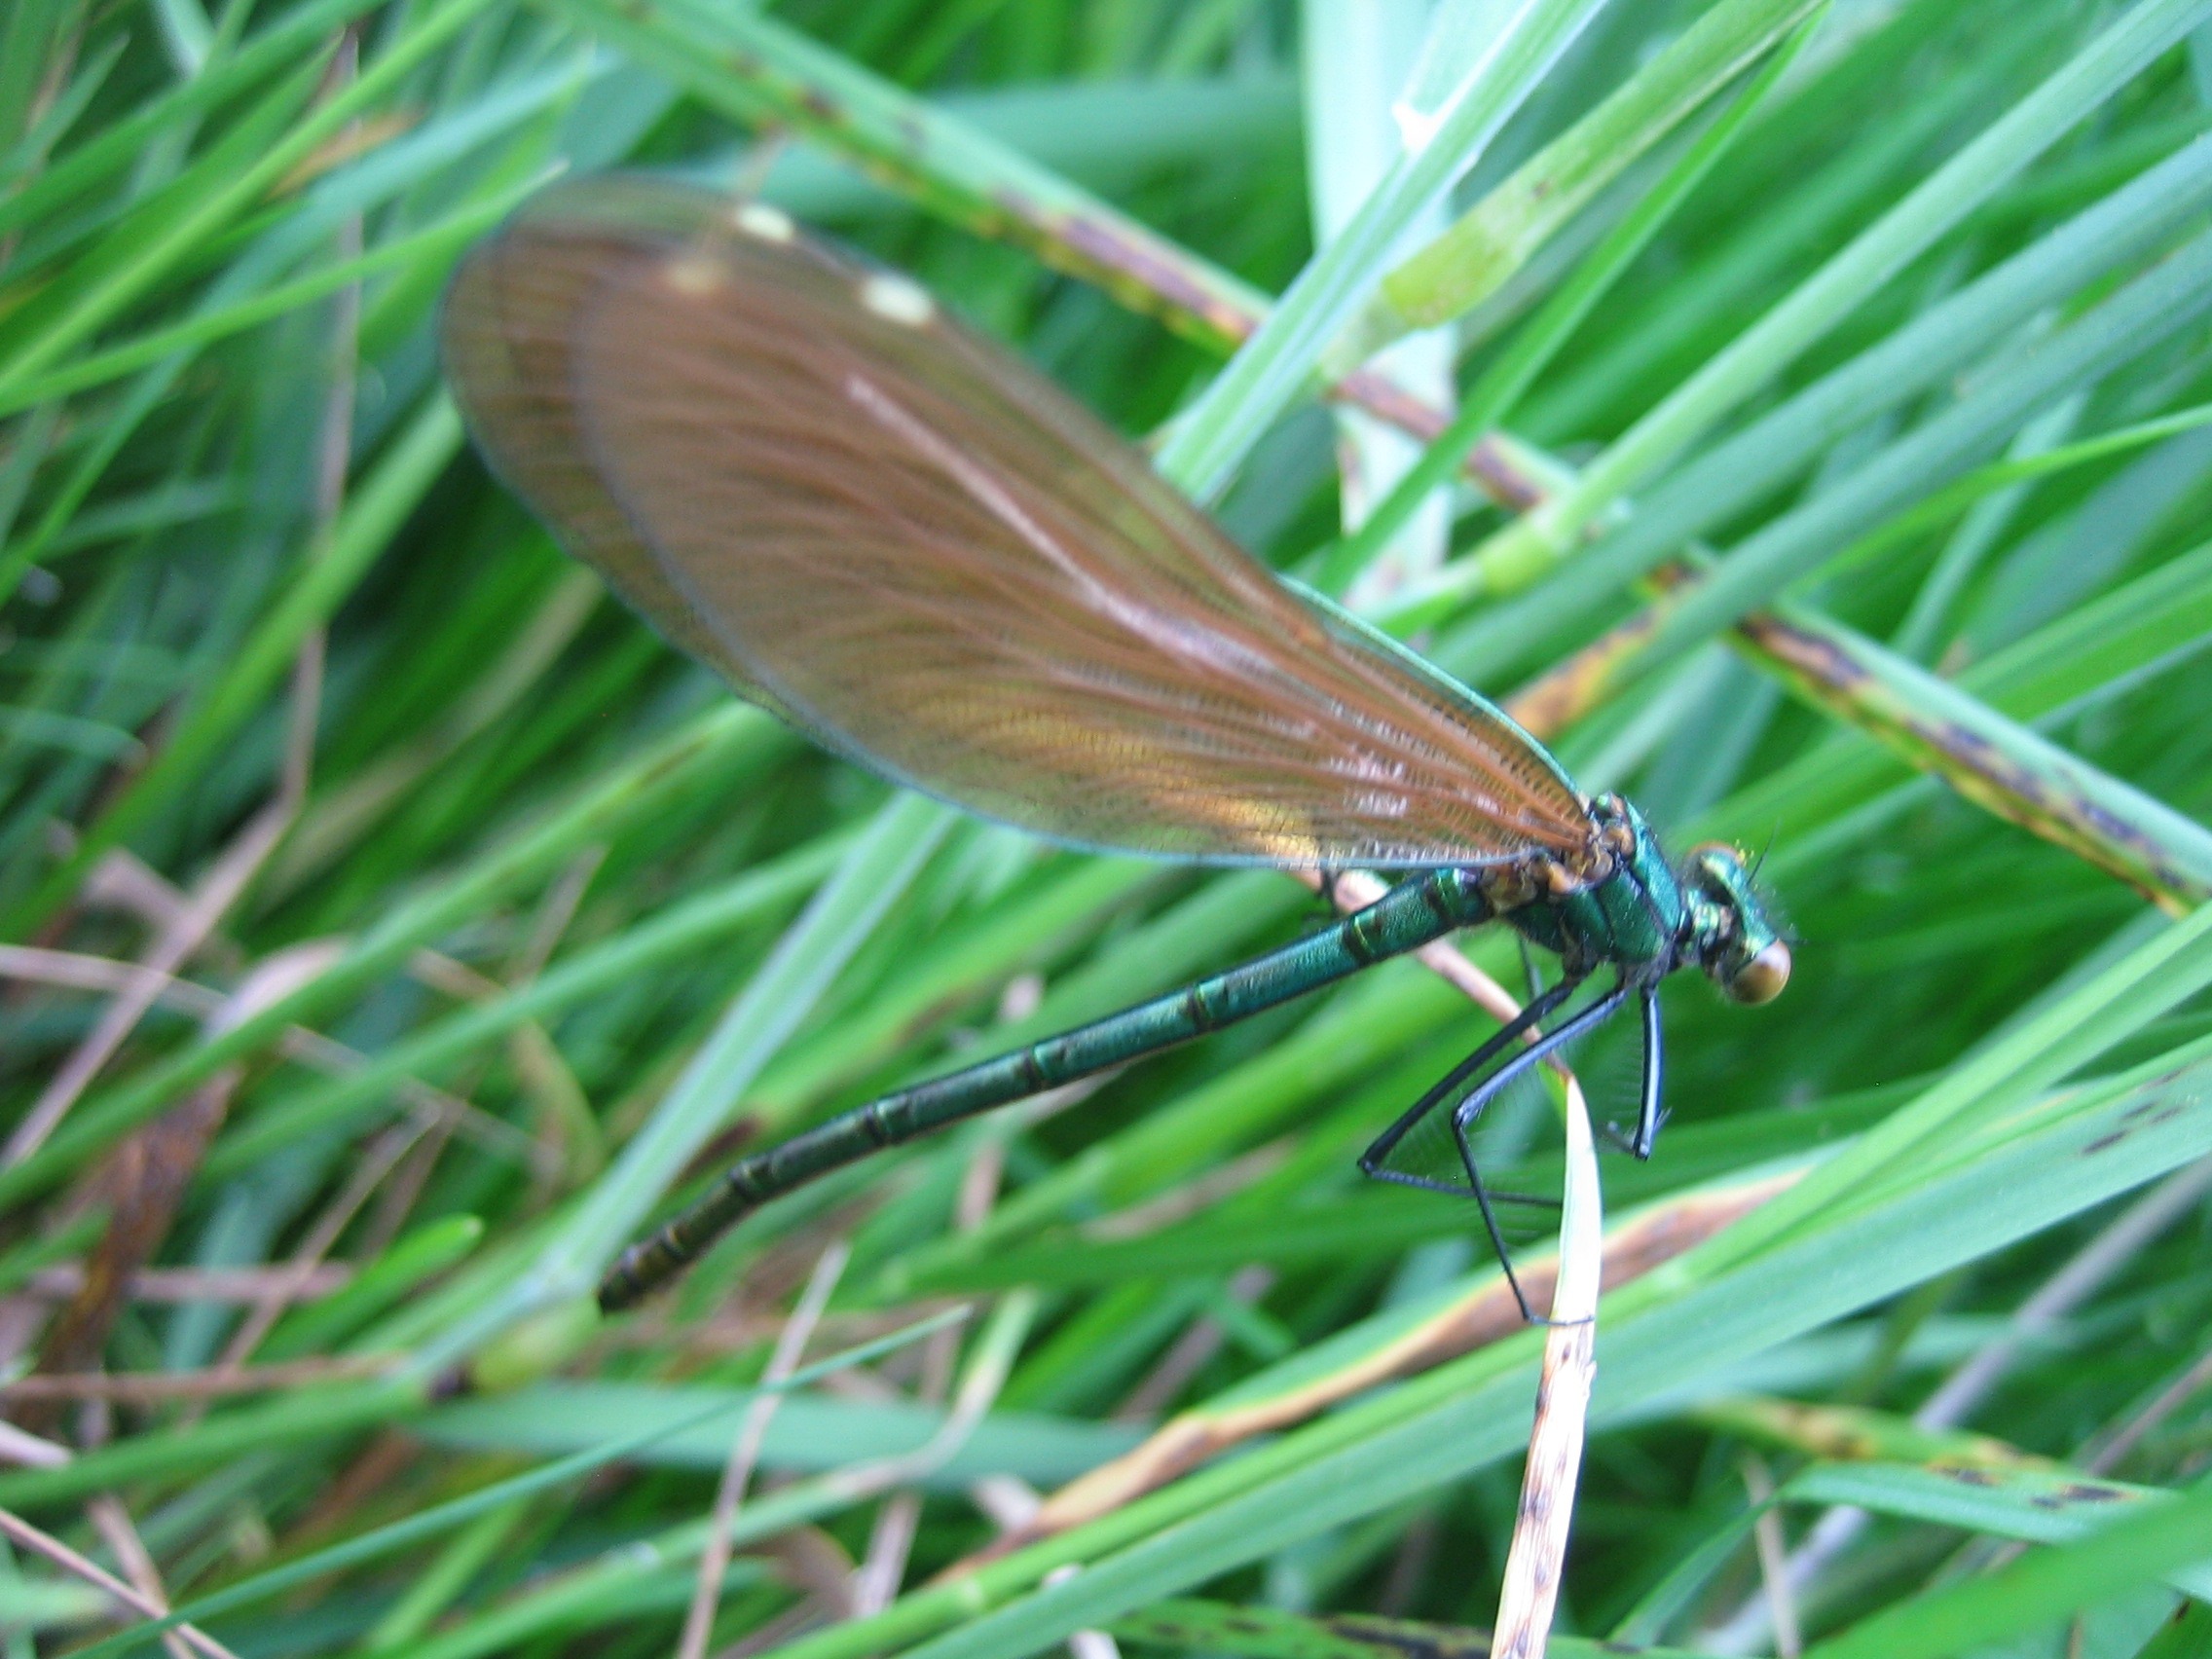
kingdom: Animalia
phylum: Arthropoda
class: Insecta
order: Odonata
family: Calopterygidae
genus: Calopteryx
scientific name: Calopteryx virgo
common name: Blåvinget pragtvandnymfe
